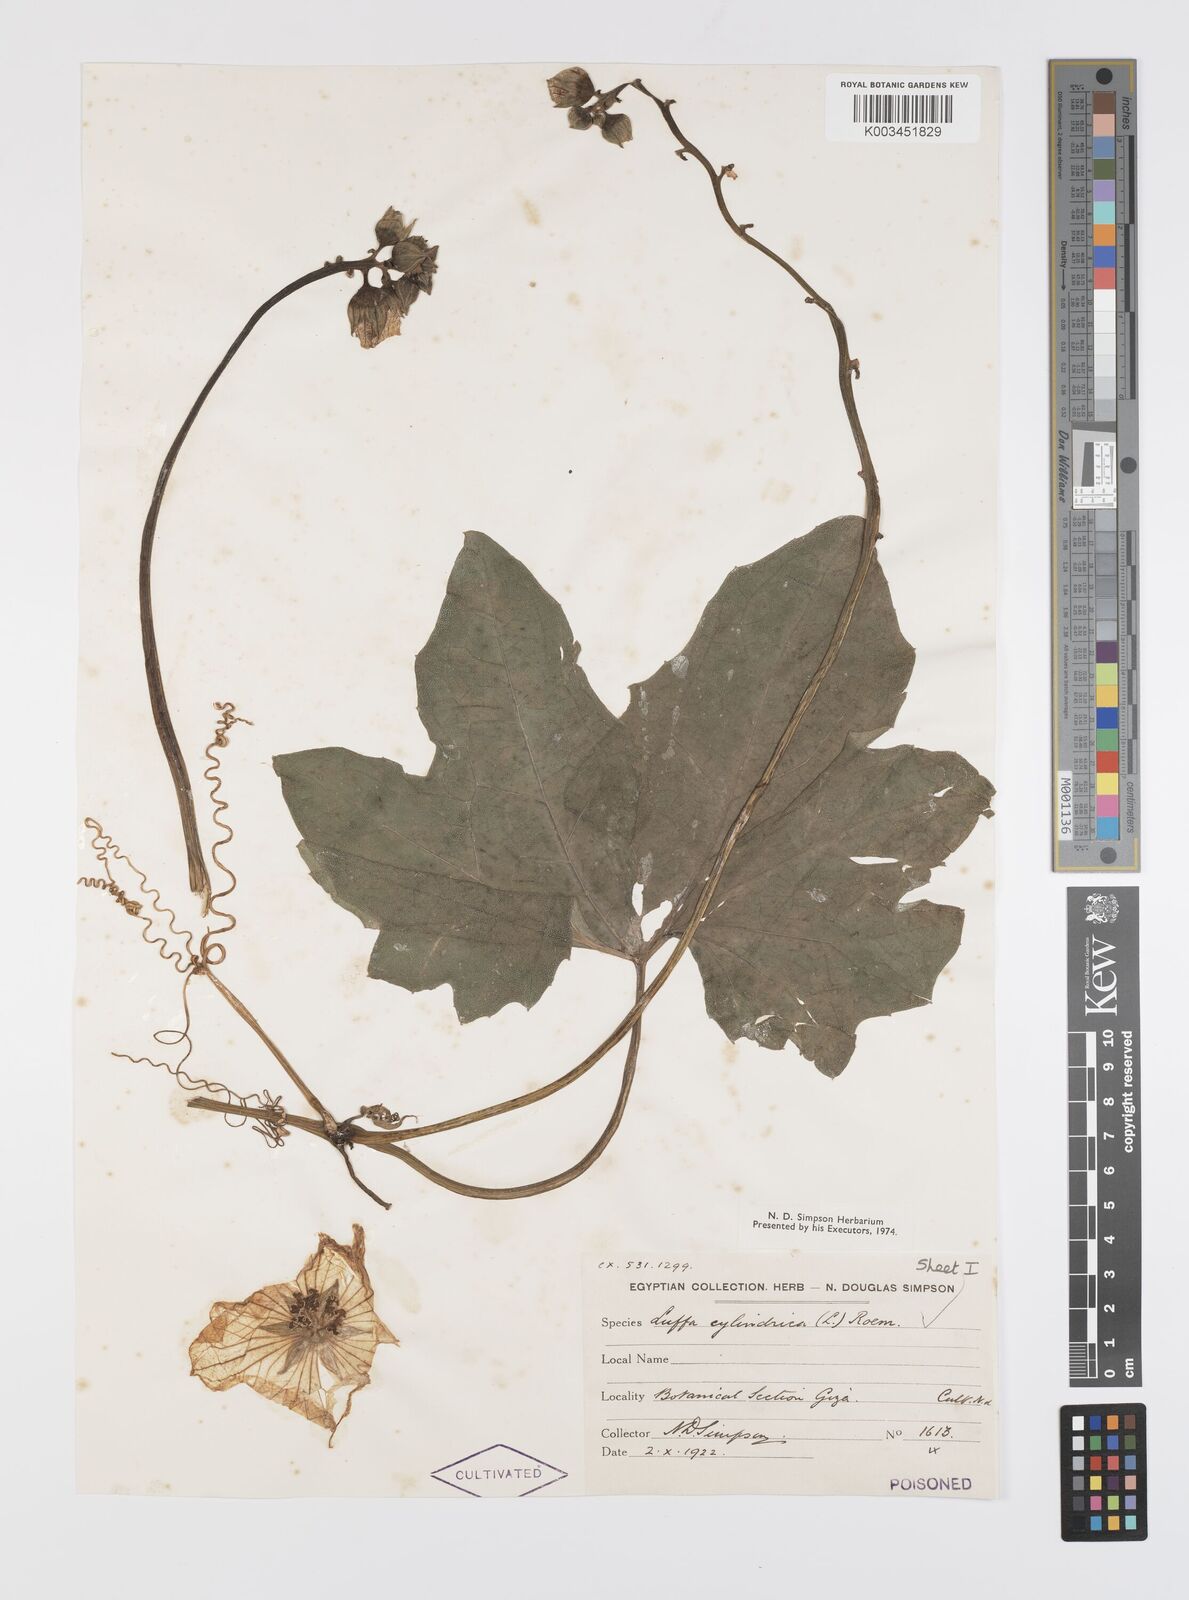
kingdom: Plantae
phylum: Tracheophyta
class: Magnoliopsida
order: Cucurbitales
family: Cucurbitaceae
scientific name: Cucurbitaceae
